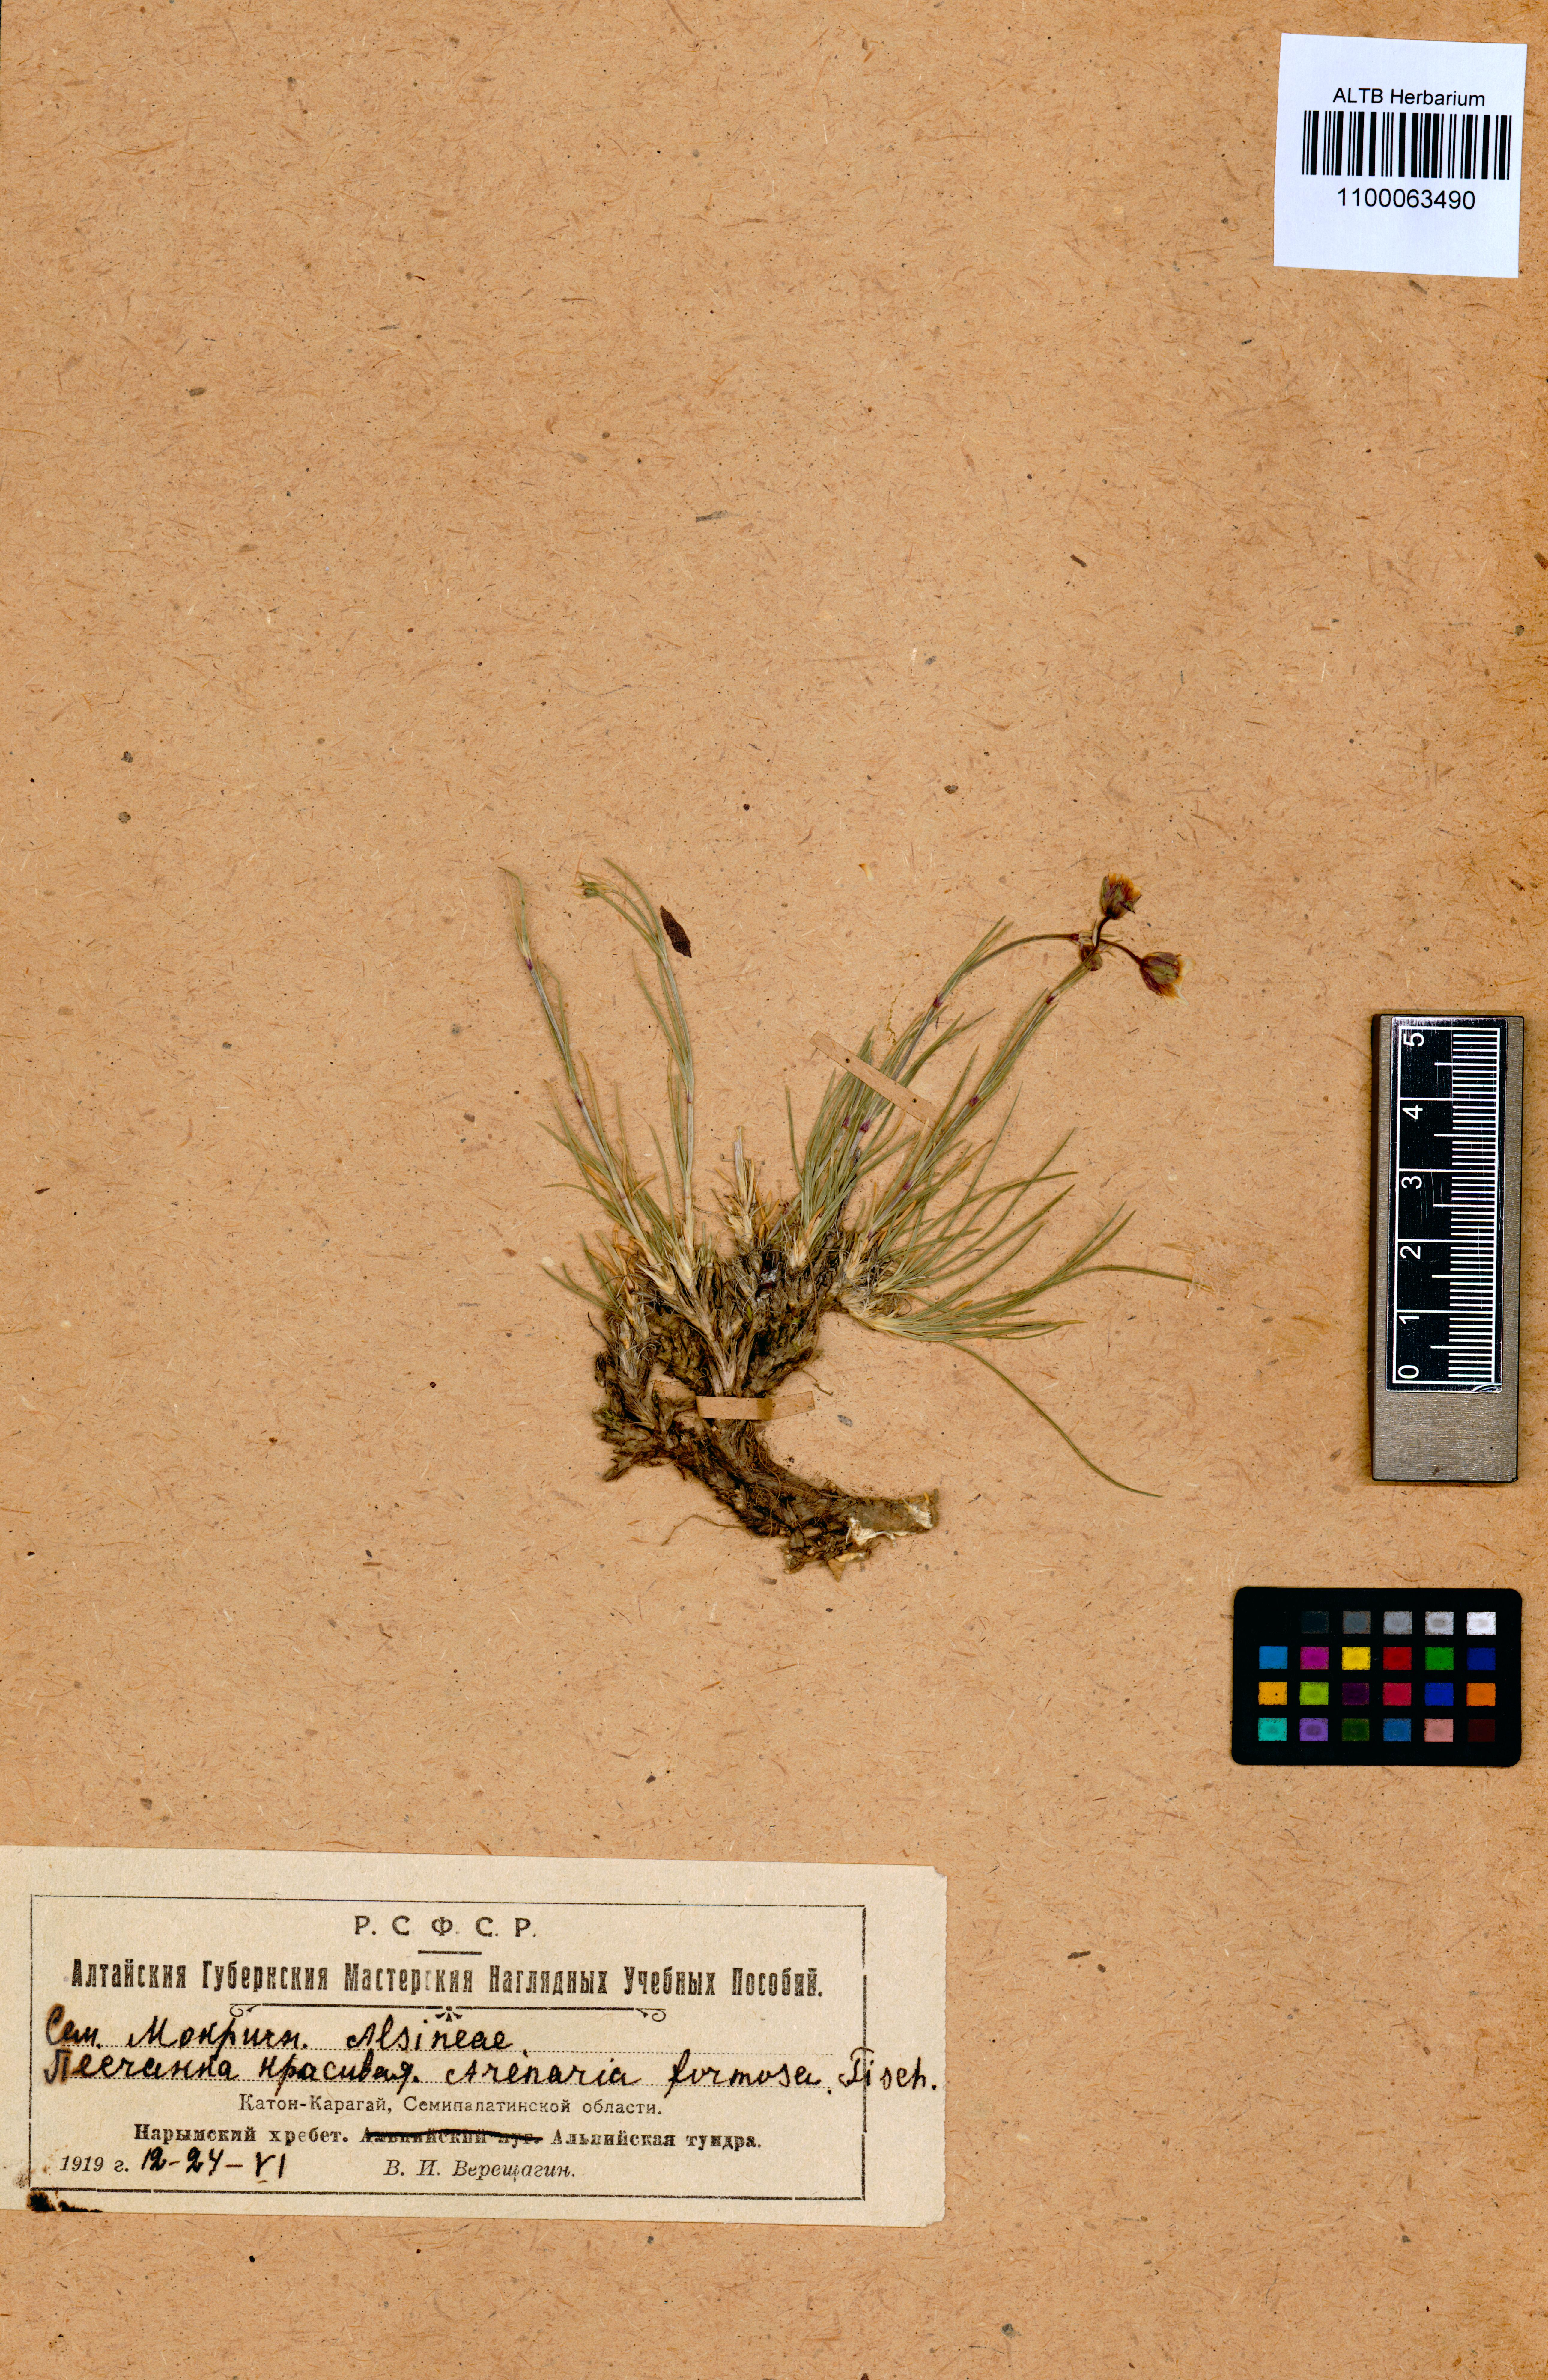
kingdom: Plantae
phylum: Tracheophyta
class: Magnoliopsida
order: Caryophyllales
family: Caryophyllaceae
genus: Eremogone
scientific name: Eremogone formosa
